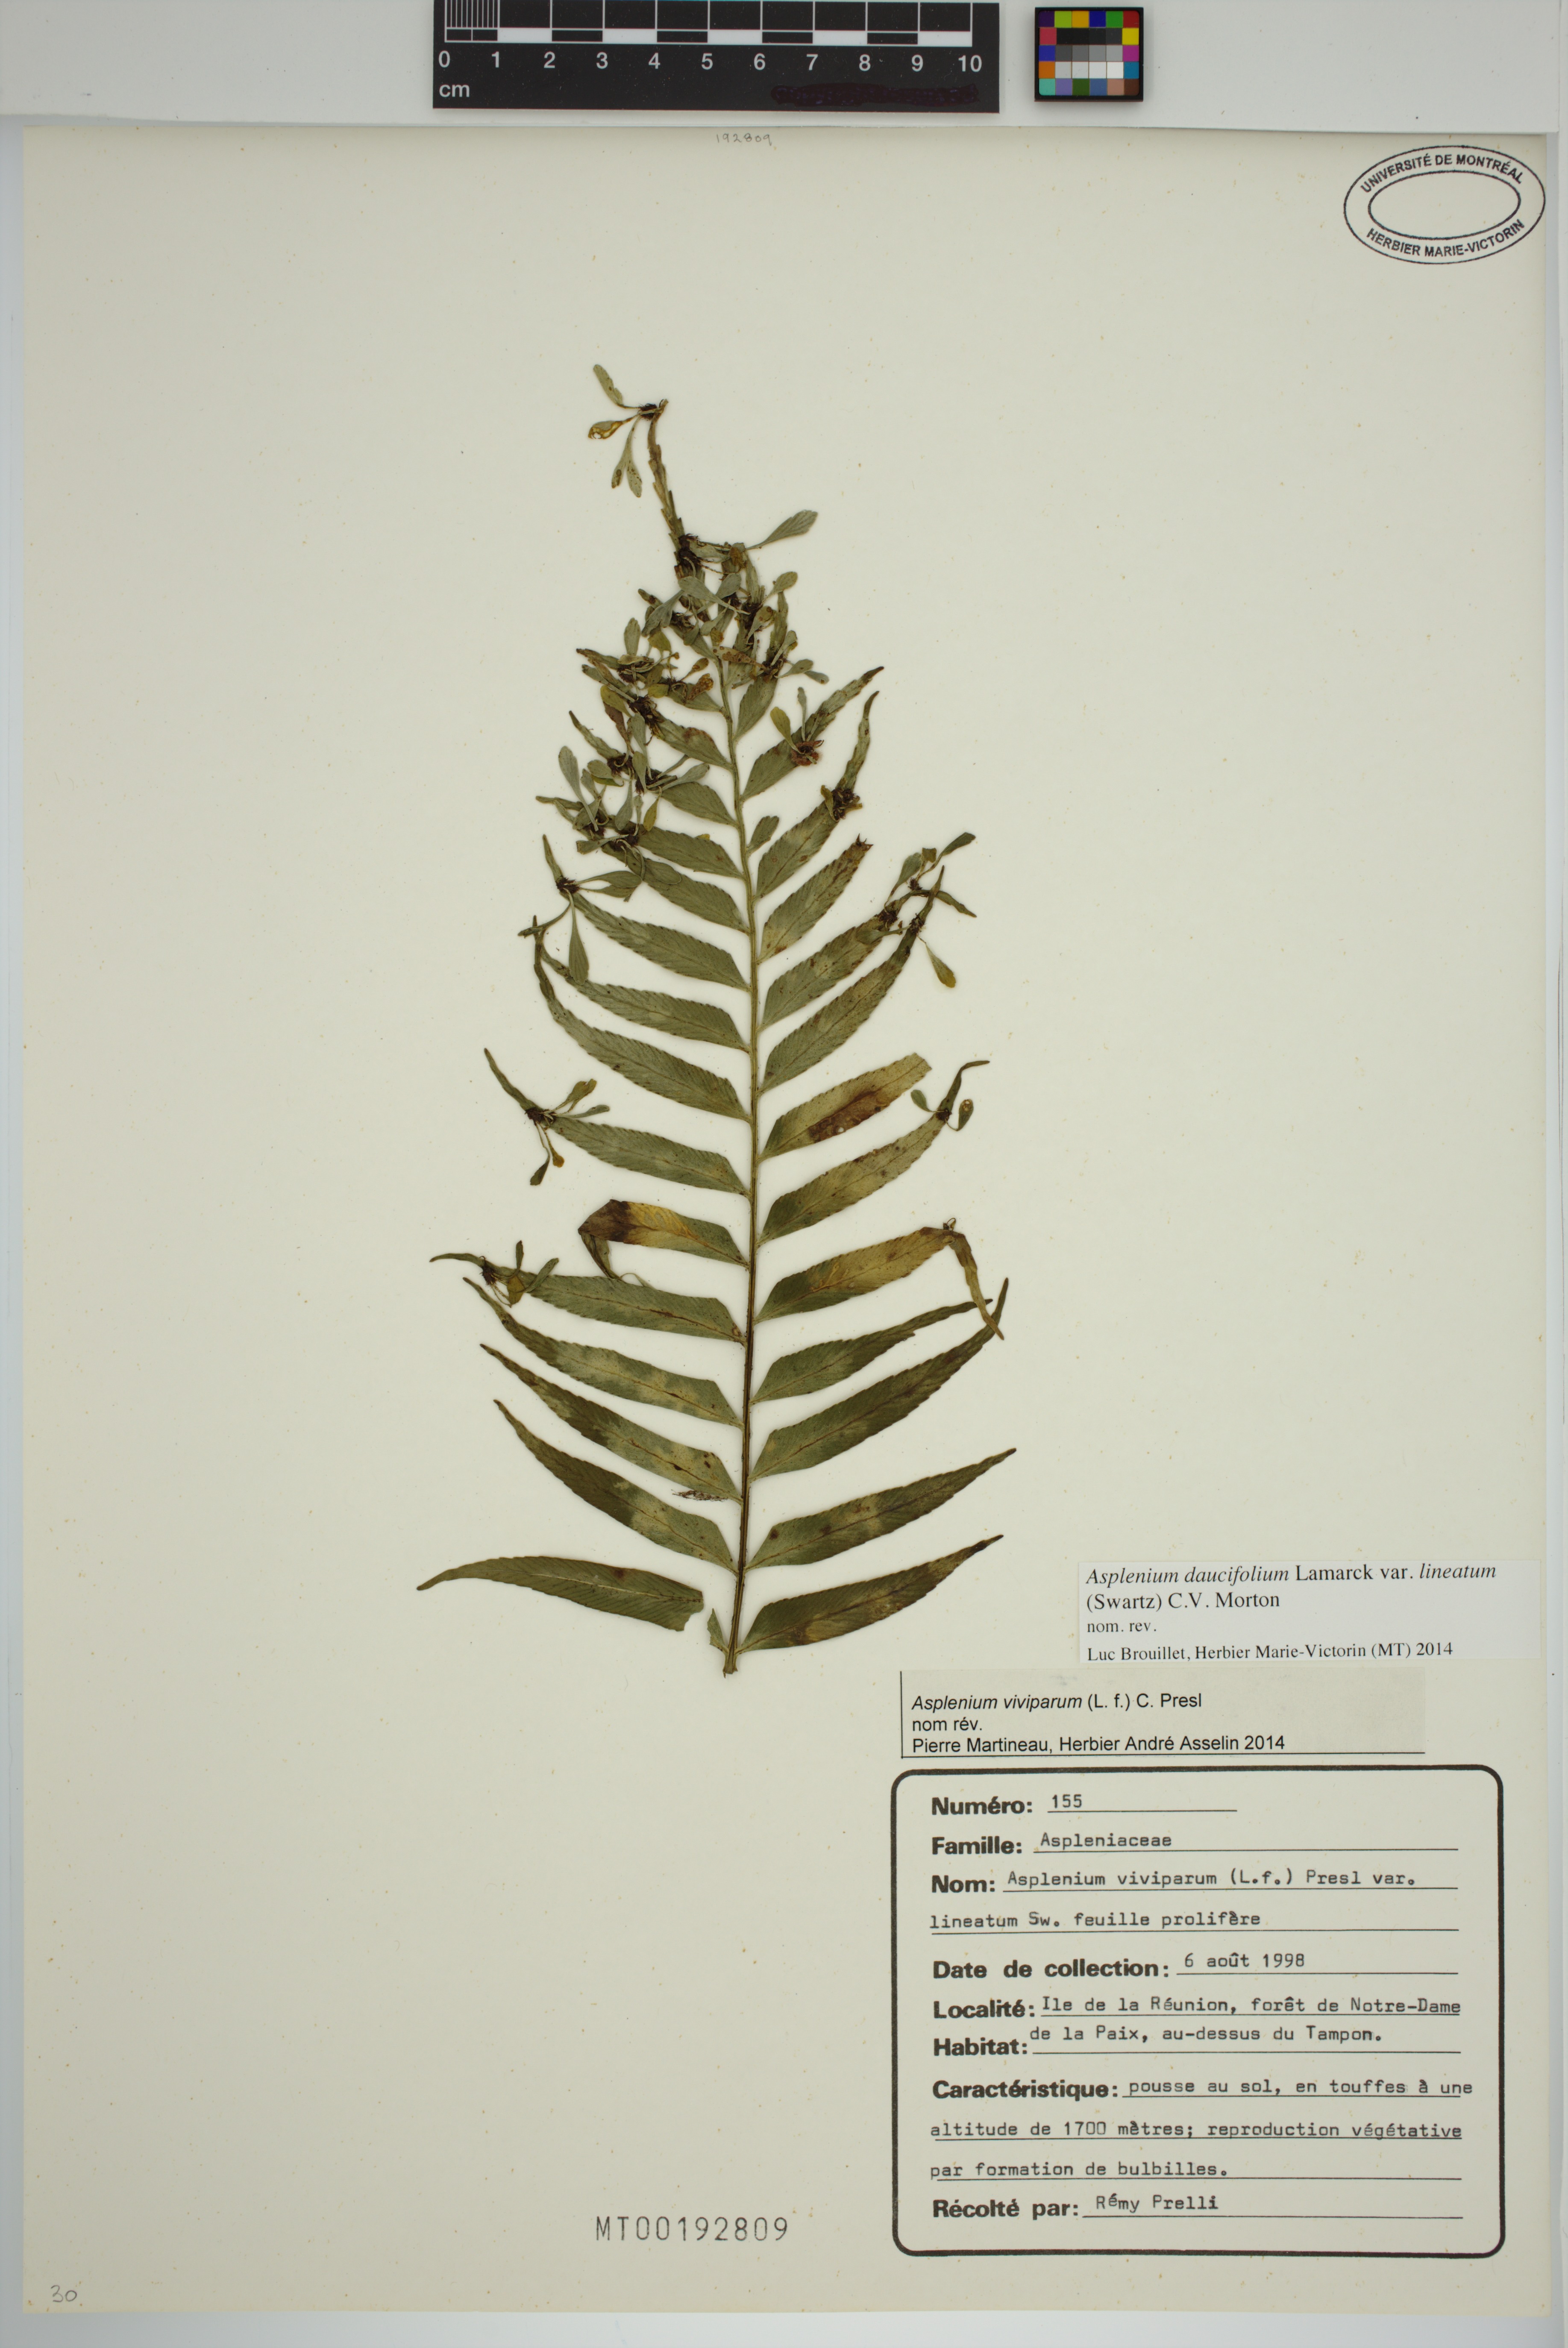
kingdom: Plantae
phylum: Tracheophyta
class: Polypodiopsida
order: Polypodiales
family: Aspleniaceae
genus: Asplenium
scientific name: Asplenium daucifolium
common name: Mauritius spleenwort
